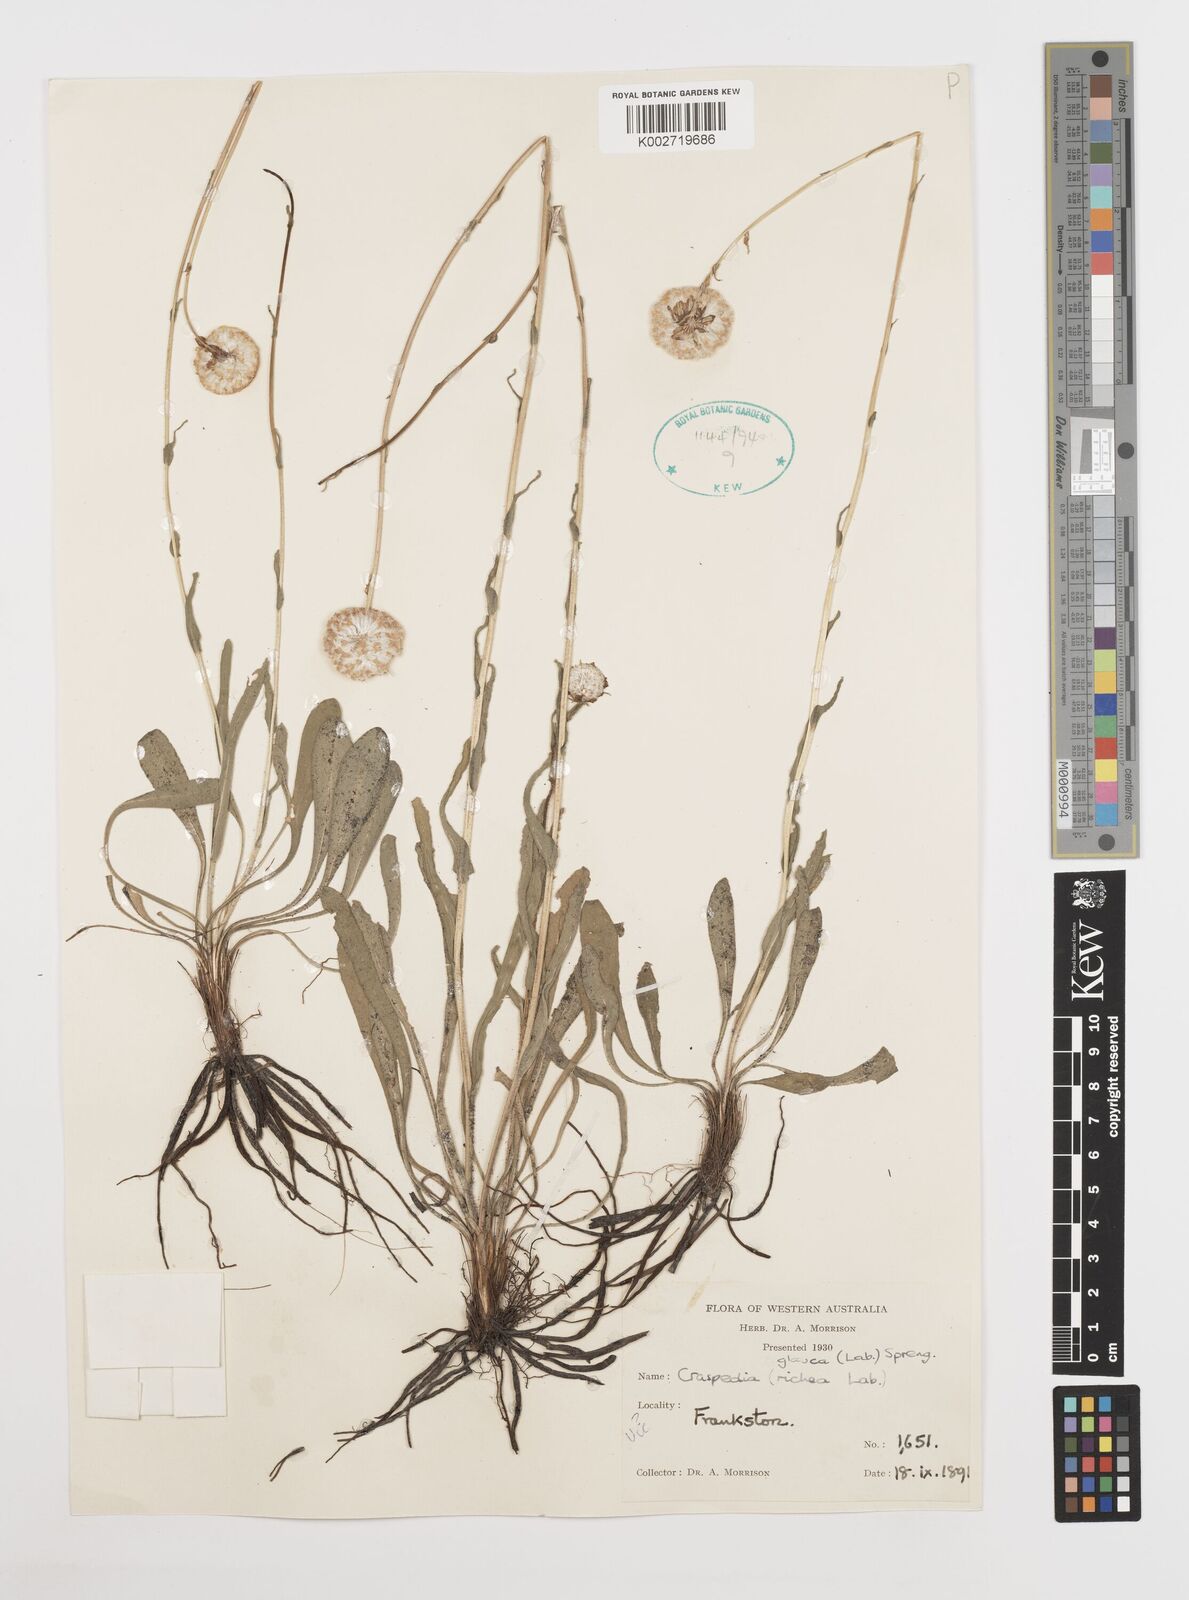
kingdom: Plantae
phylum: Tracheophyta
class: Magnoliopsida
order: Asterales
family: Asteraceae
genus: Craspedia
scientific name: Craspedia glauca
